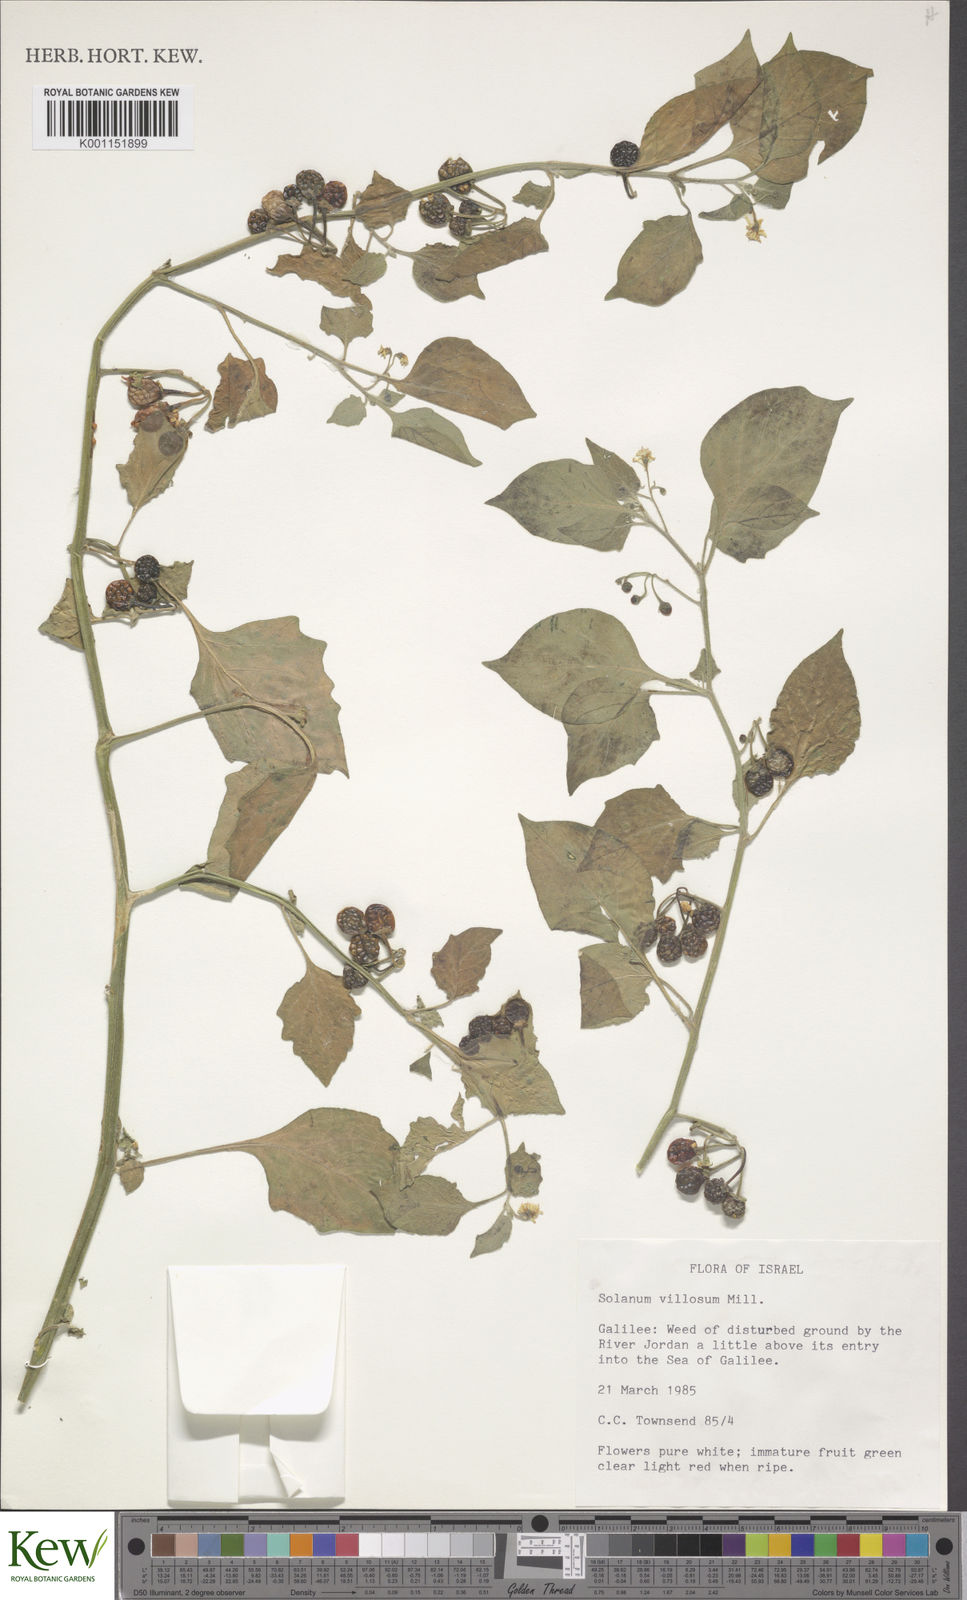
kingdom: Plantae
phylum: Tracheophyta
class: Magnoliopsida
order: Solanales
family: Solanaceae
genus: Solanum
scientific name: Solanum villosum
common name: Red nightshade
